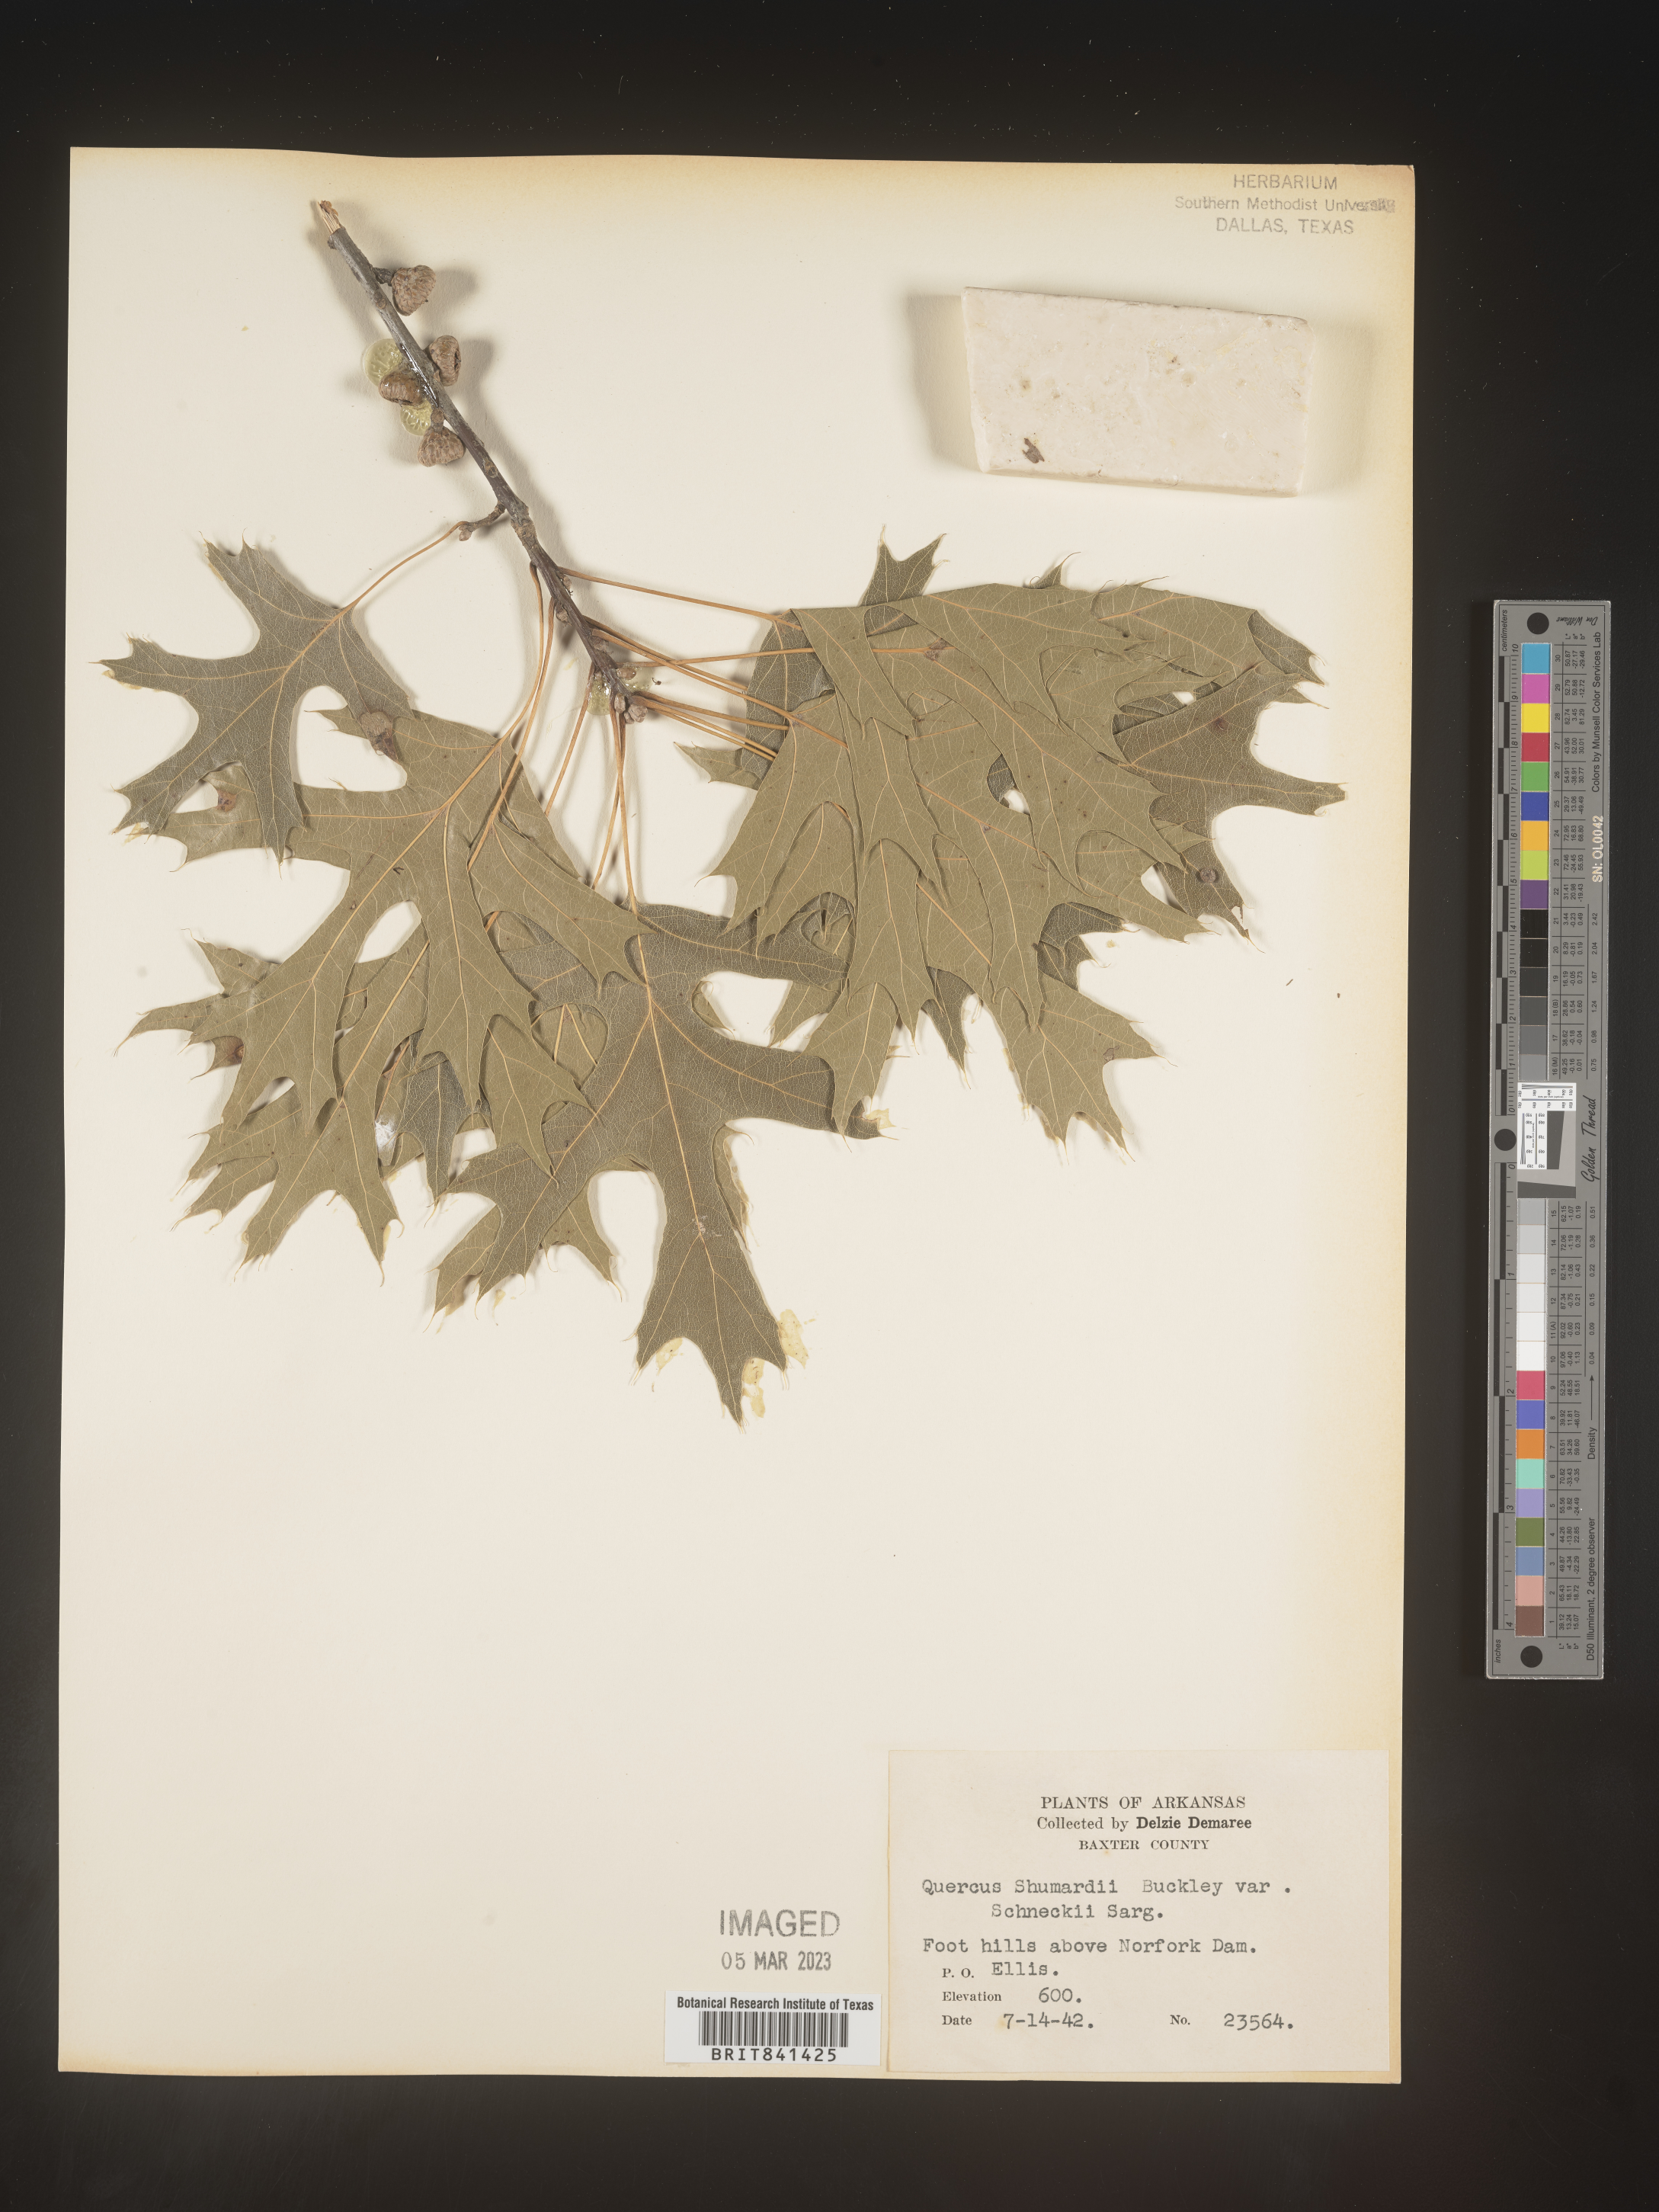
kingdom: Plantae
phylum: Tracheophyta
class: Magnoliopsida
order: Fagales
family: Fagaceae
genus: Quercus
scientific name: Quercus shumardii
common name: Shumard oak
